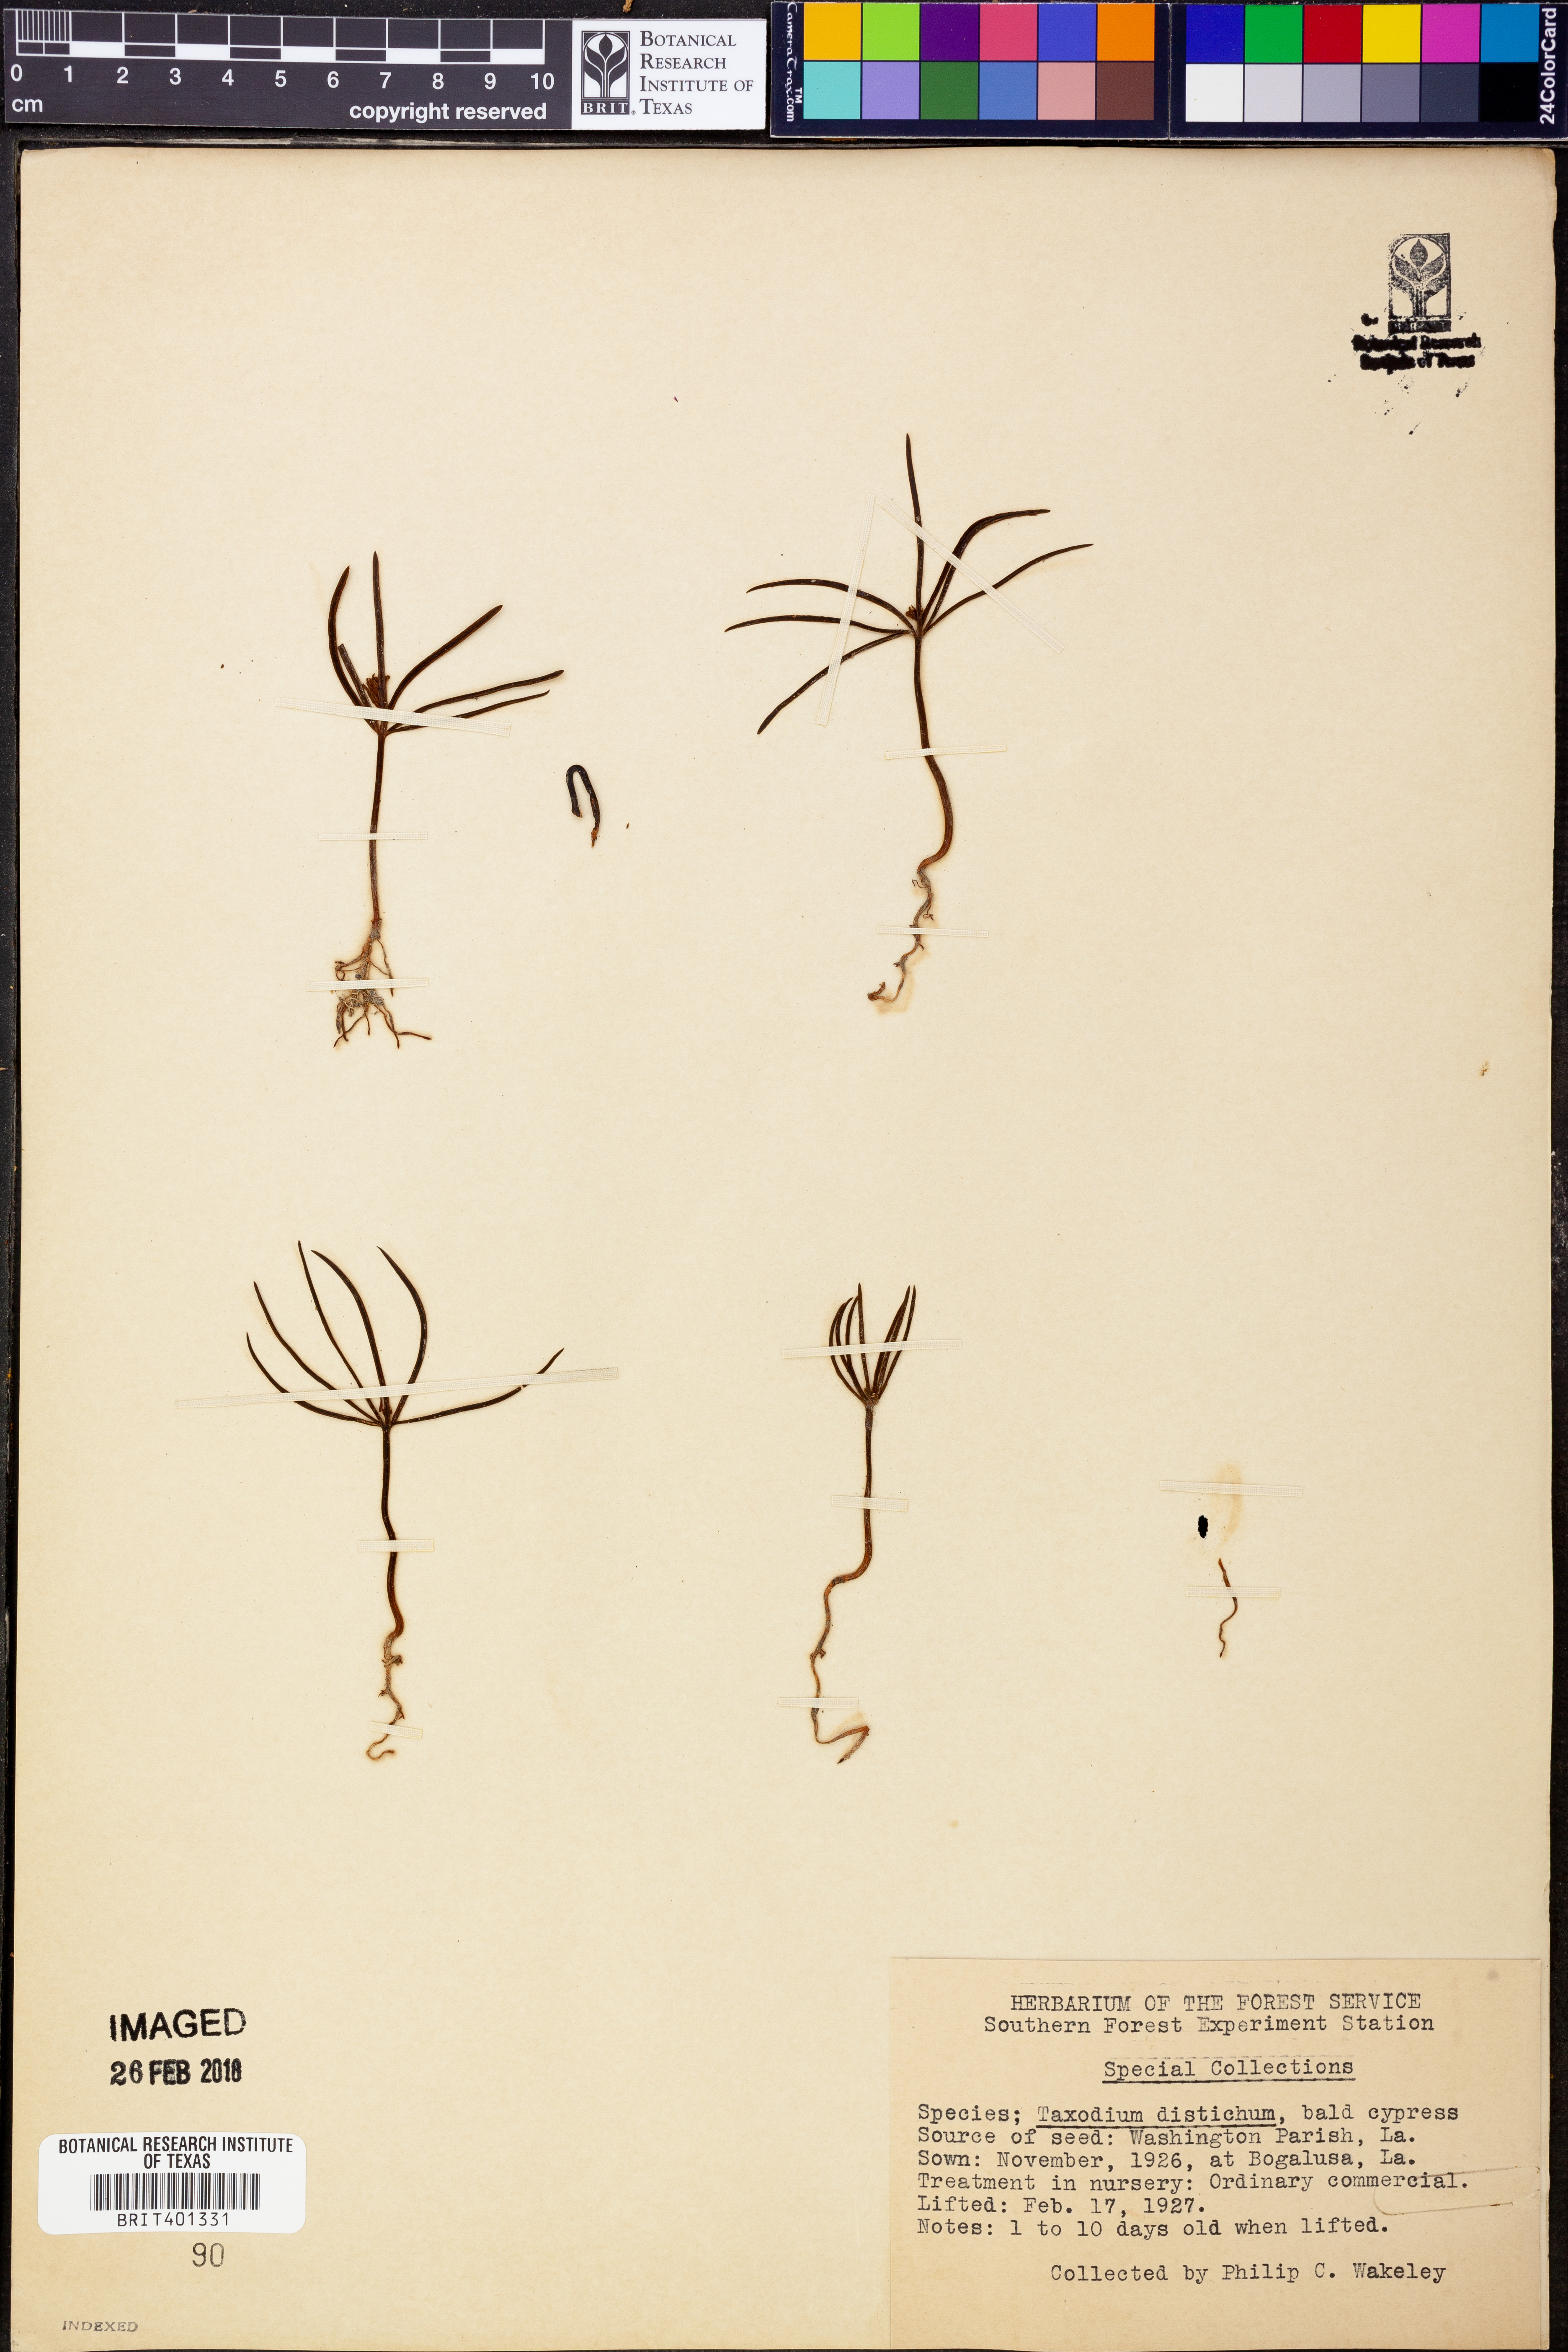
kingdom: Plantae
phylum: Tracheophyta
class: Pinopsida
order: Pinales
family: Cupressaceae
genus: Taxodium
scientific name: Taxodium distichum
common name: Bald cypress
